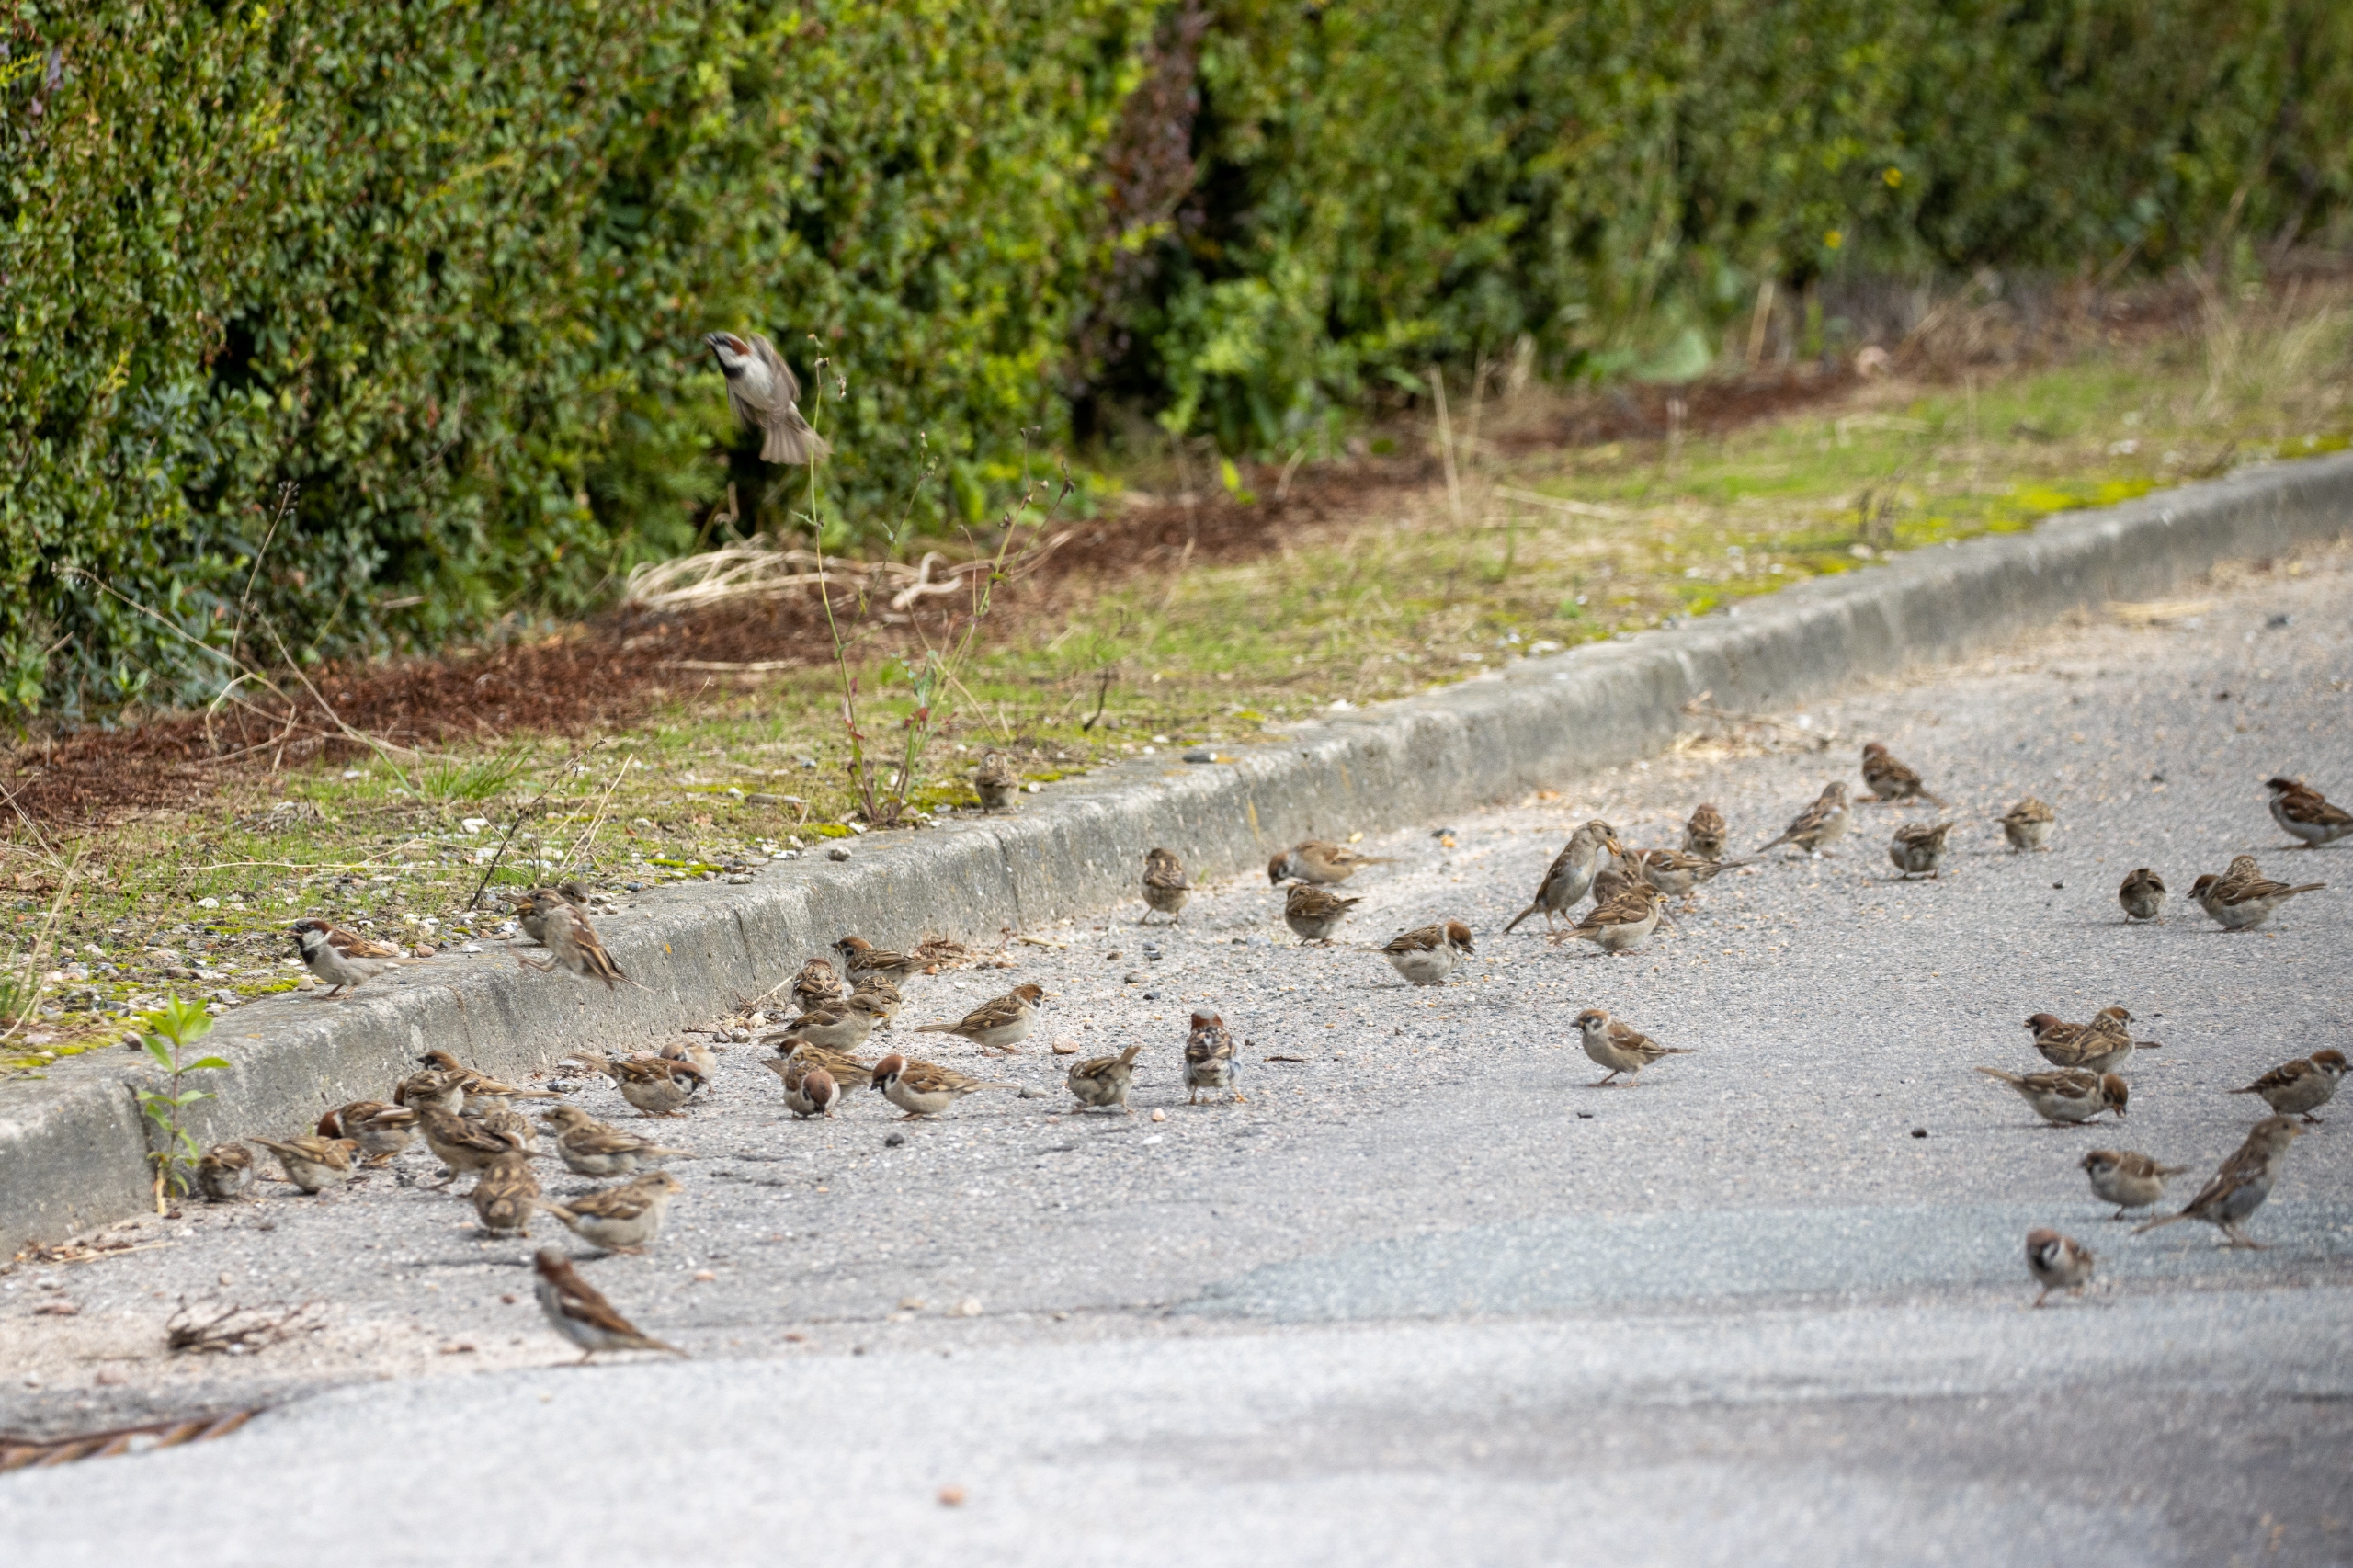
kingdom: Animalia
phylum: Chordata
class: Aves
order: Passeriformes
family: Passeridae
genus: Passer
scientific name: Passer domesticus
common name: Gråspurv
